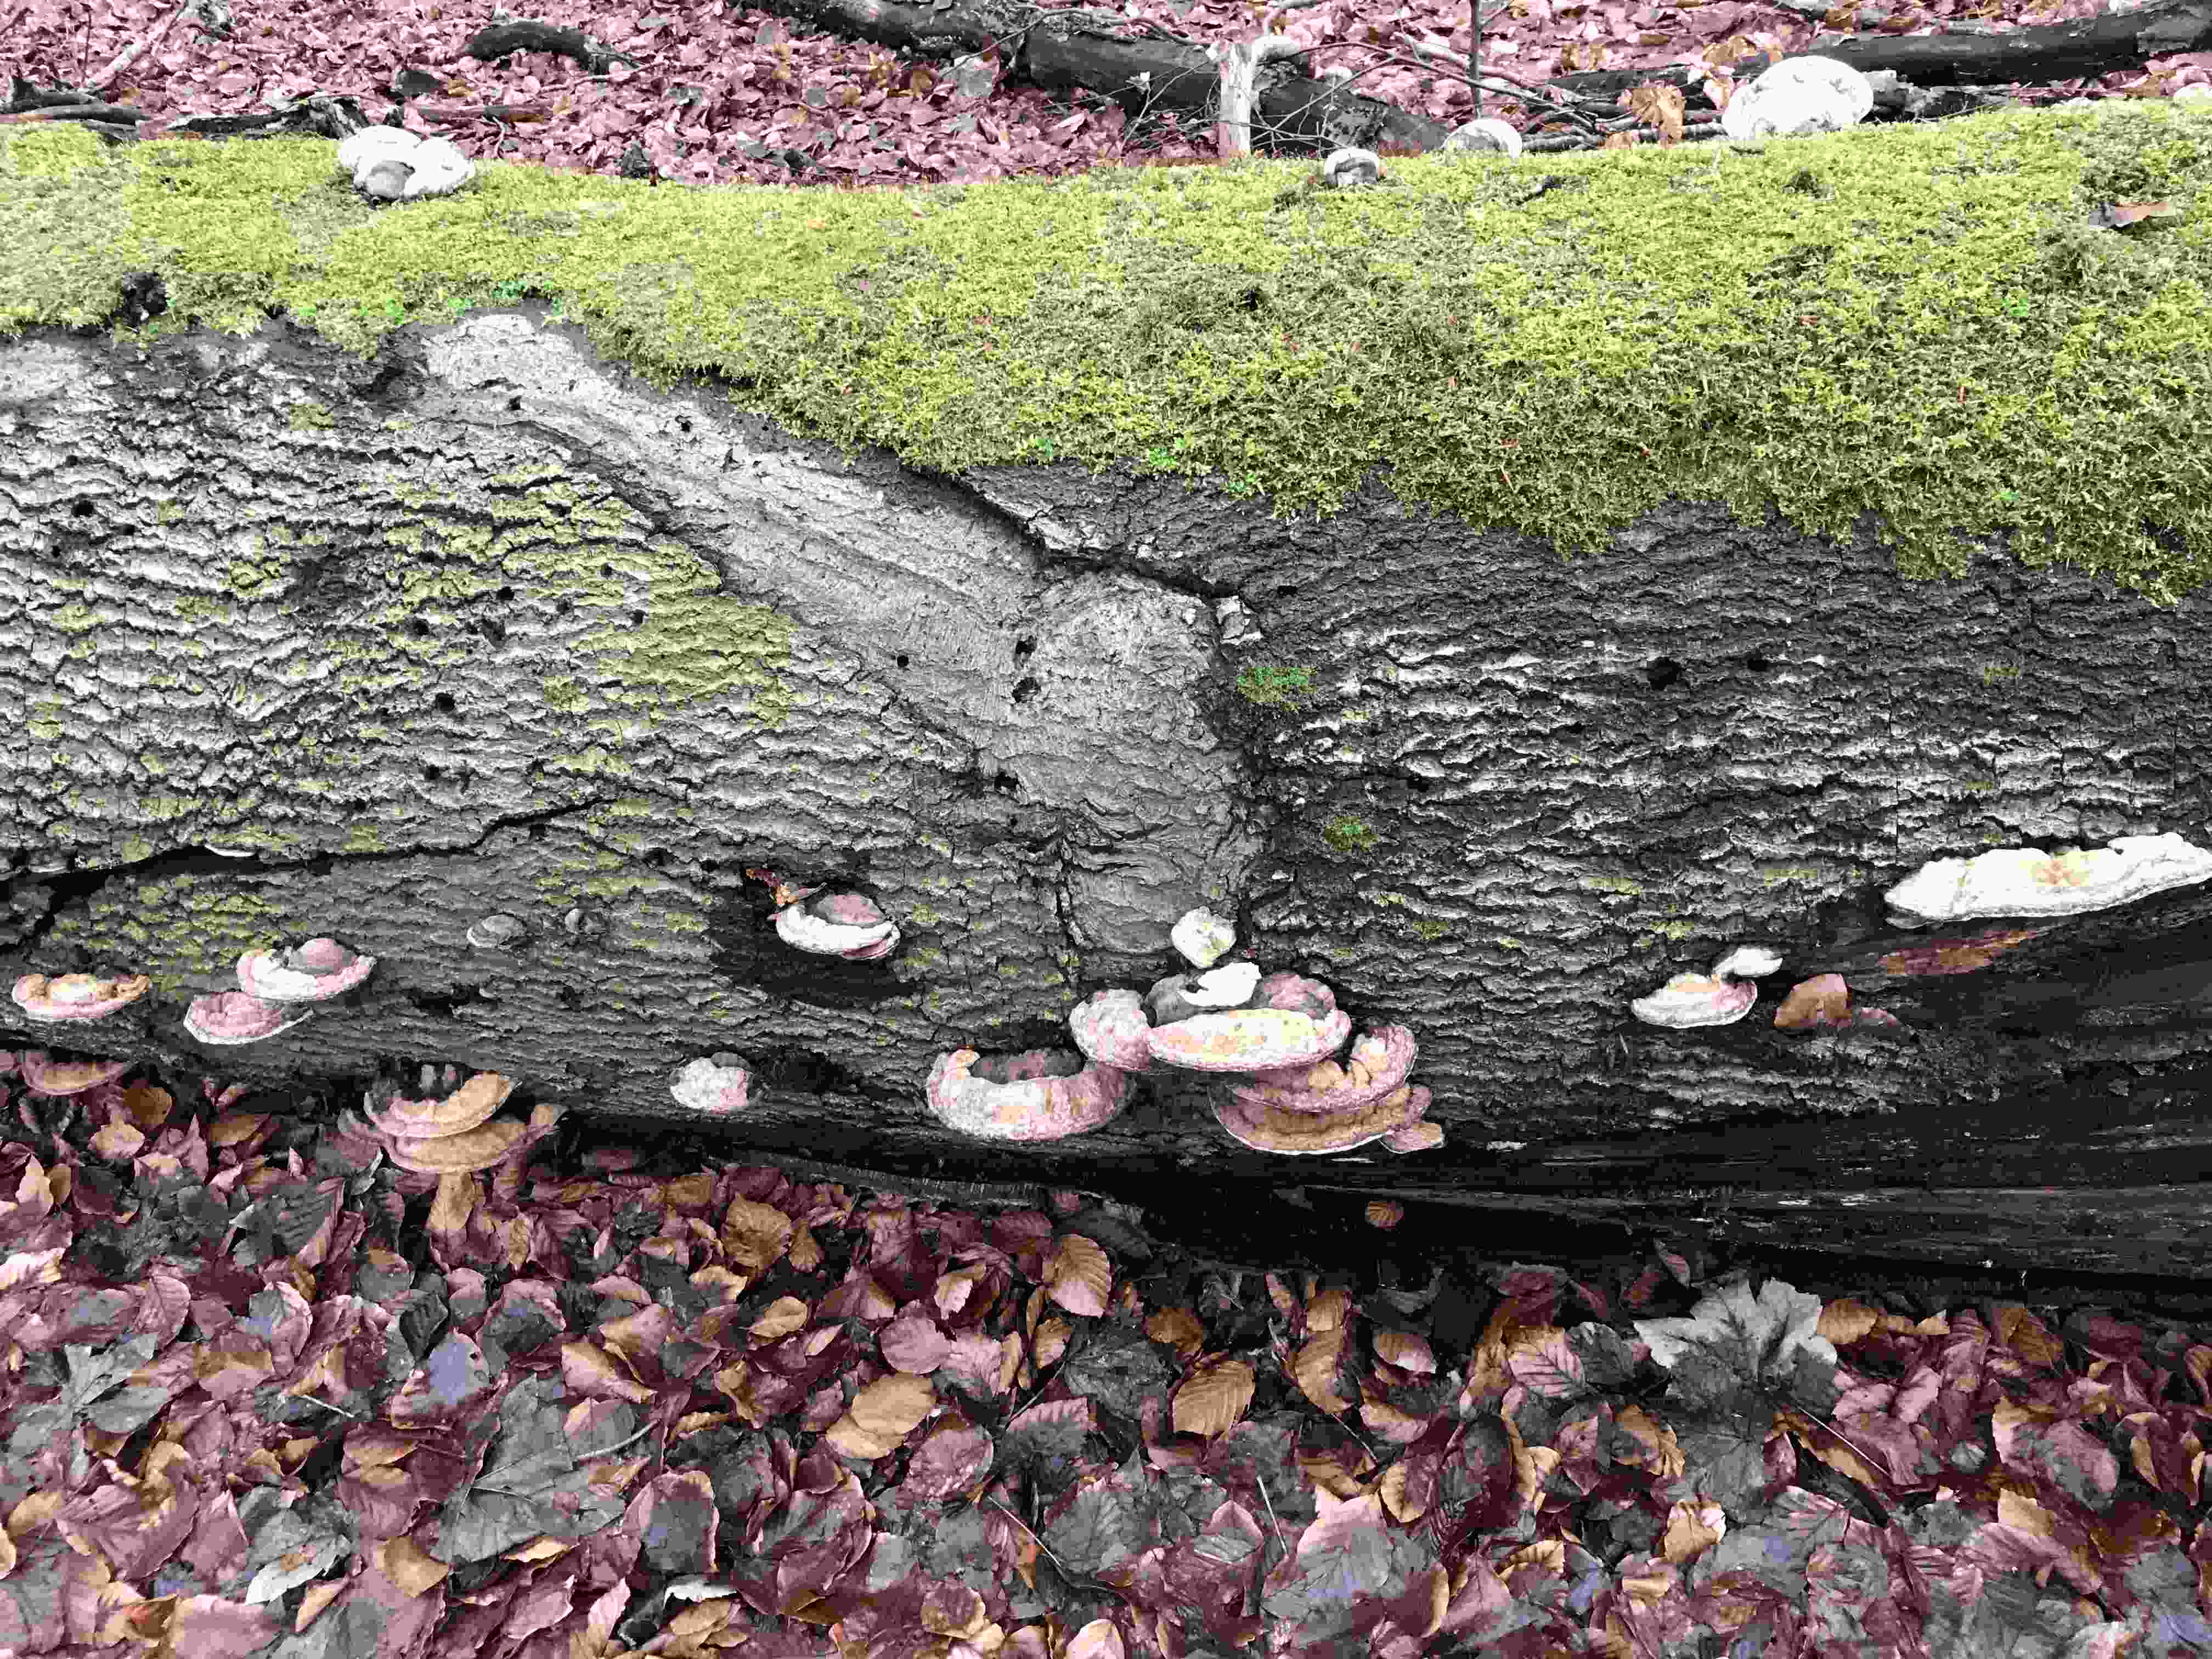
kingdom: Fungi
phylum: Basidiomycota
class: Agaricomycetes
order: Polyporales
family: Polyporaceae
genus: Ganoderma
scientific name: Ganoderma applanatum
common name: flad lakporesvamp
